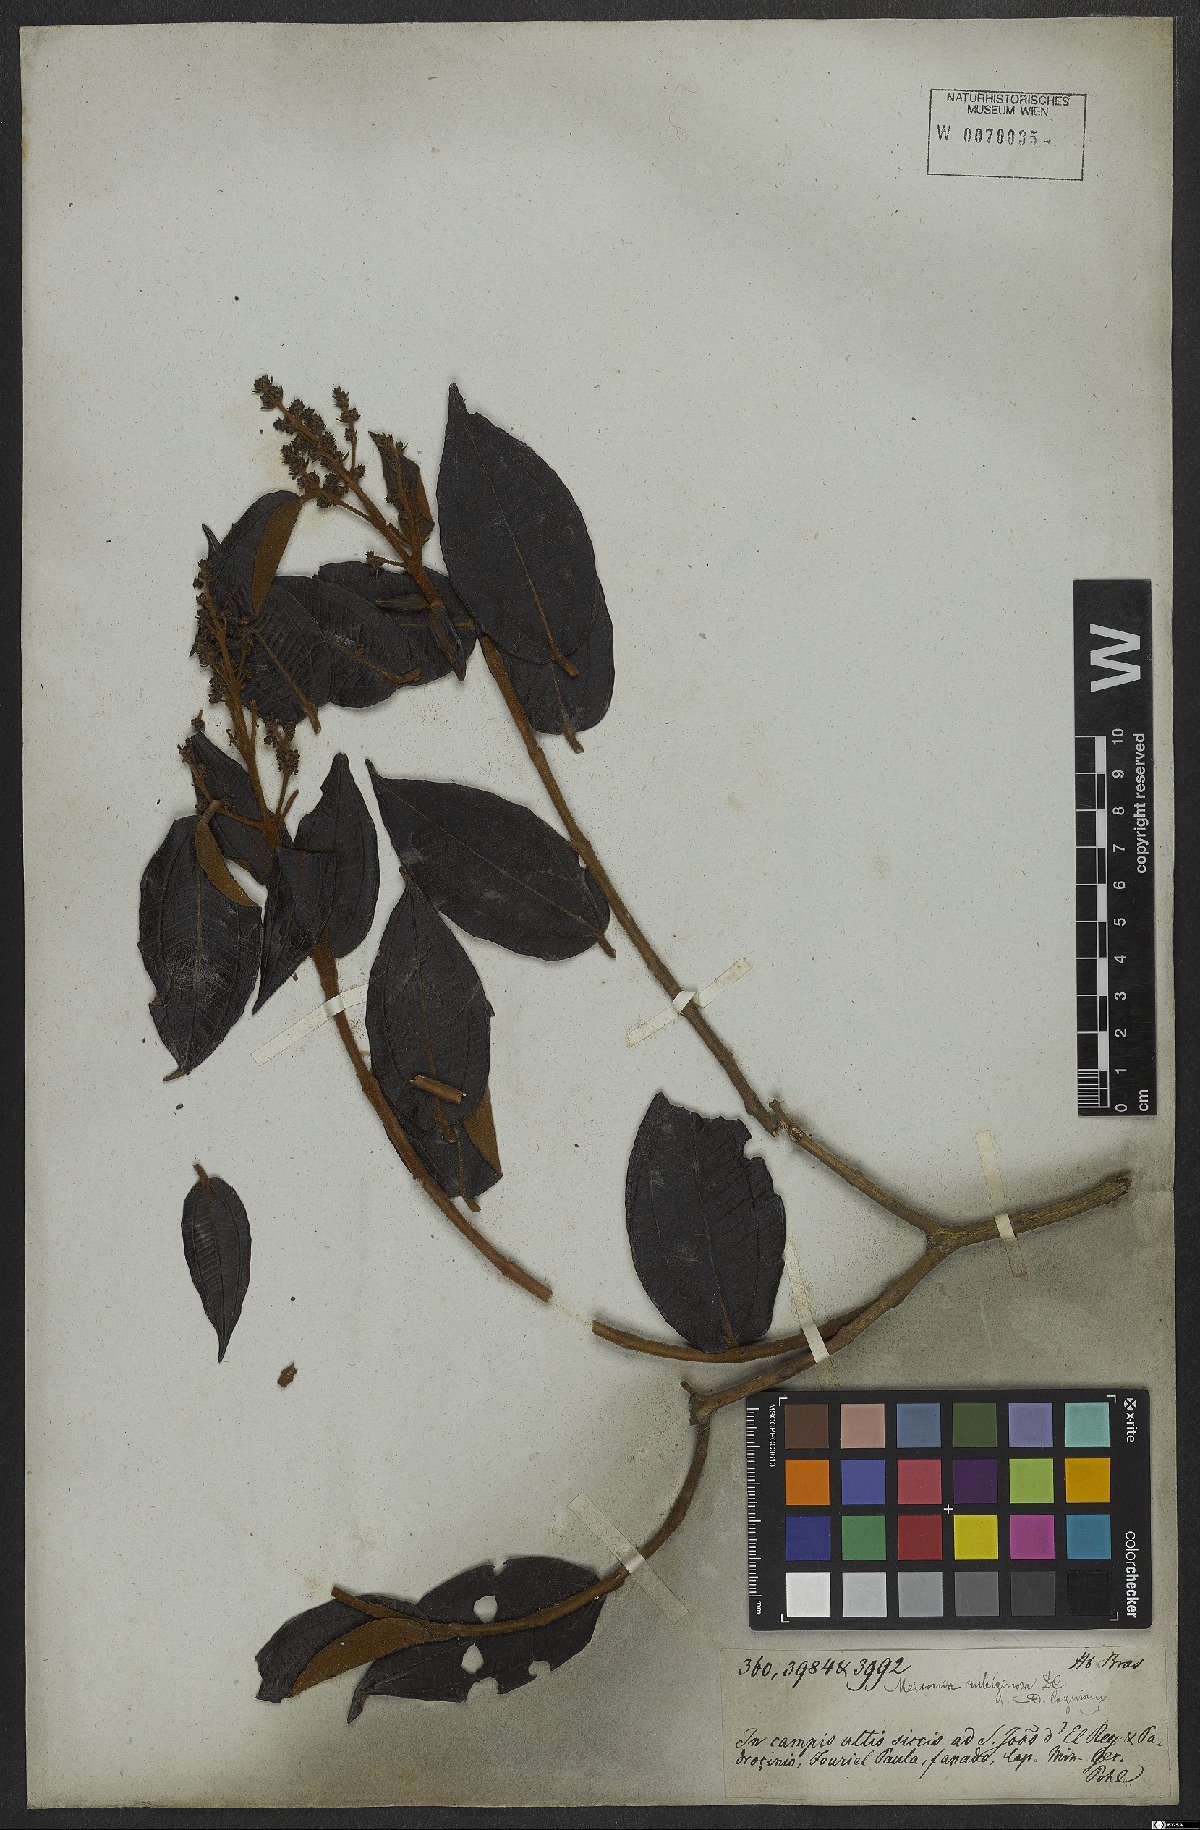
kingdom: Plantae
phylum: Tracheophyta
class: Magnoliopsida
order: Myrtales
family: Melastomataceae
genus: Miconia
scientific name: Miconia rubiginosa
